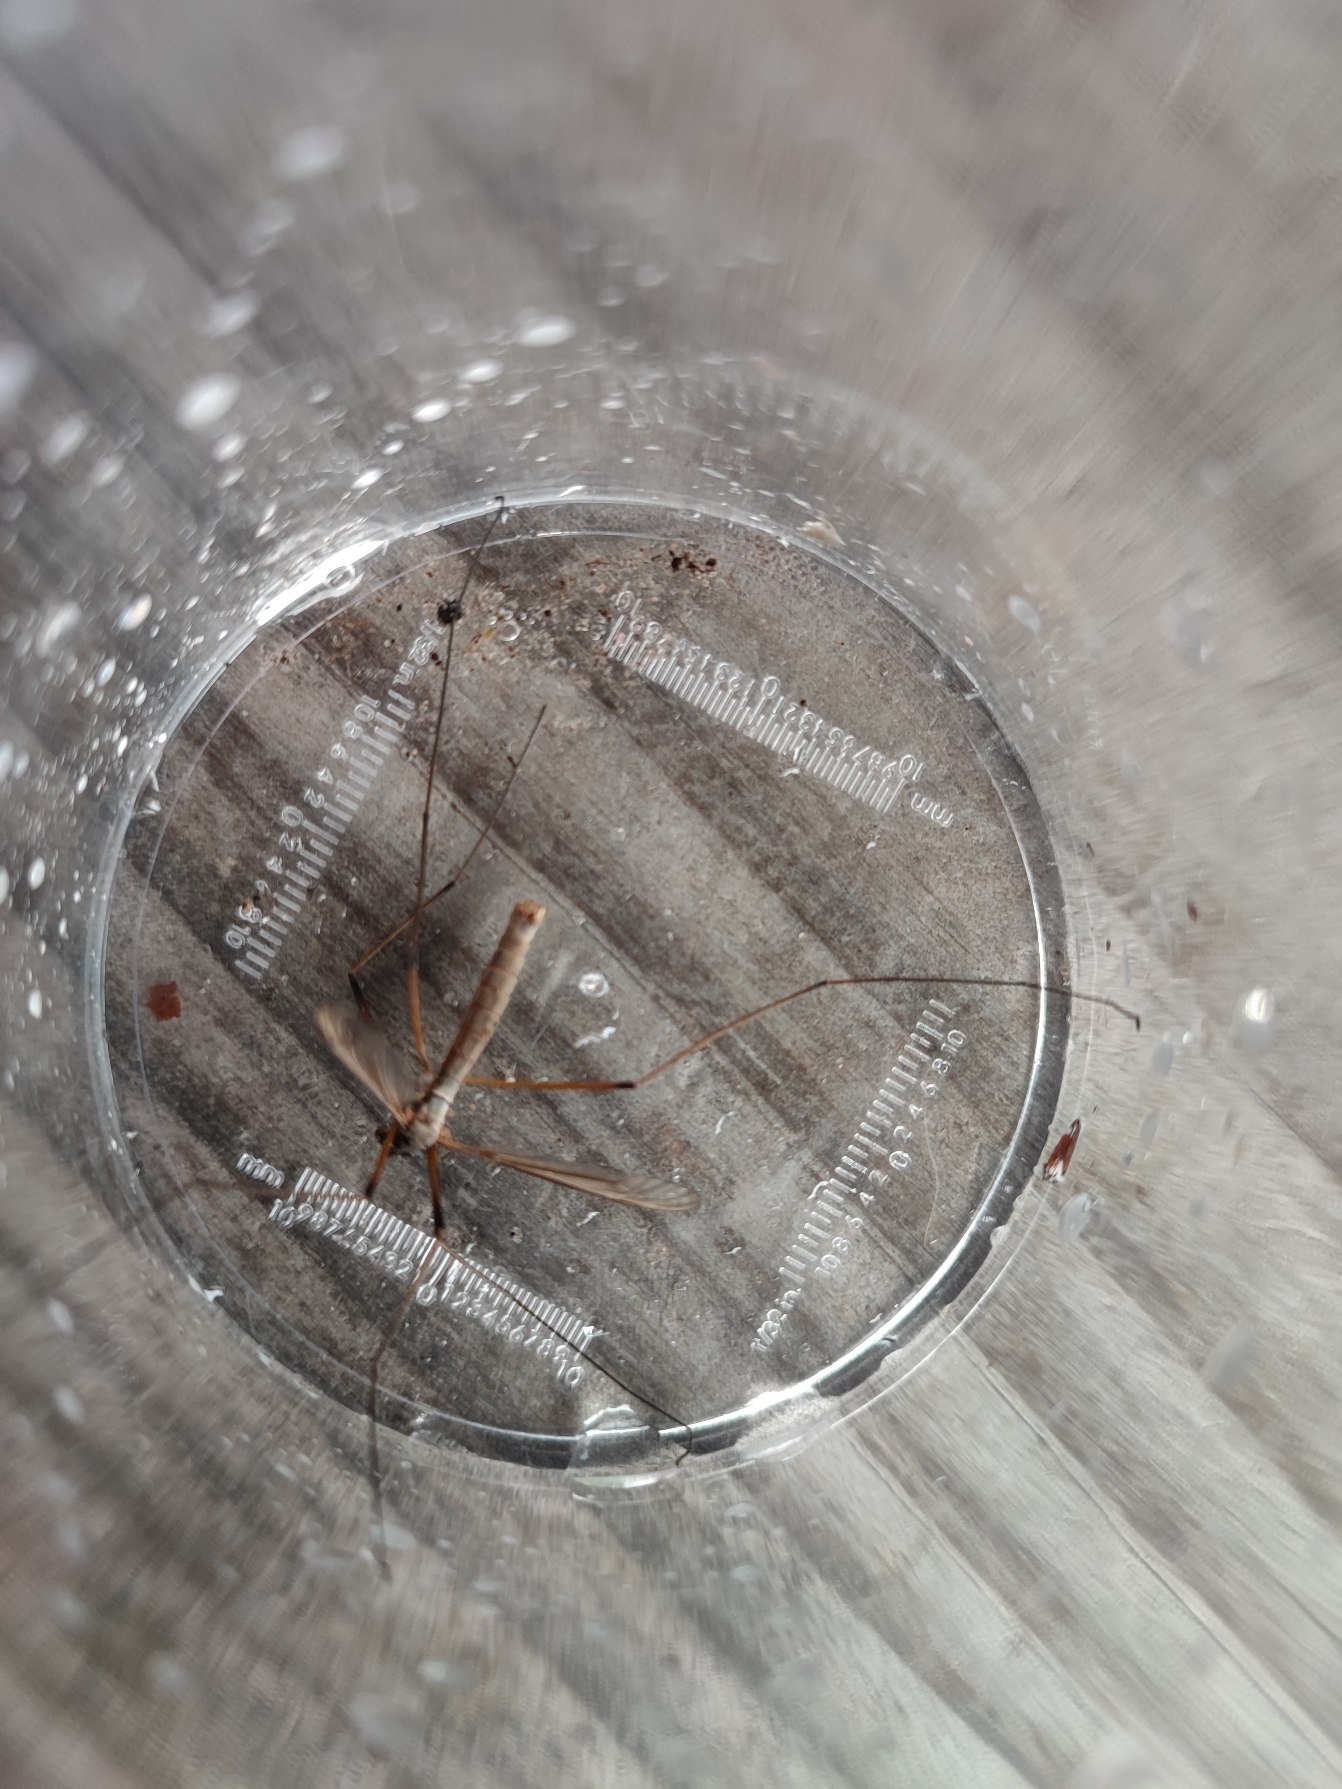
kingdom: Animalia
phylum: Arthropoda
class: Insecta
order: Diptera
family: Tipulidae
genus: Tipula
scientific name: Tipula
